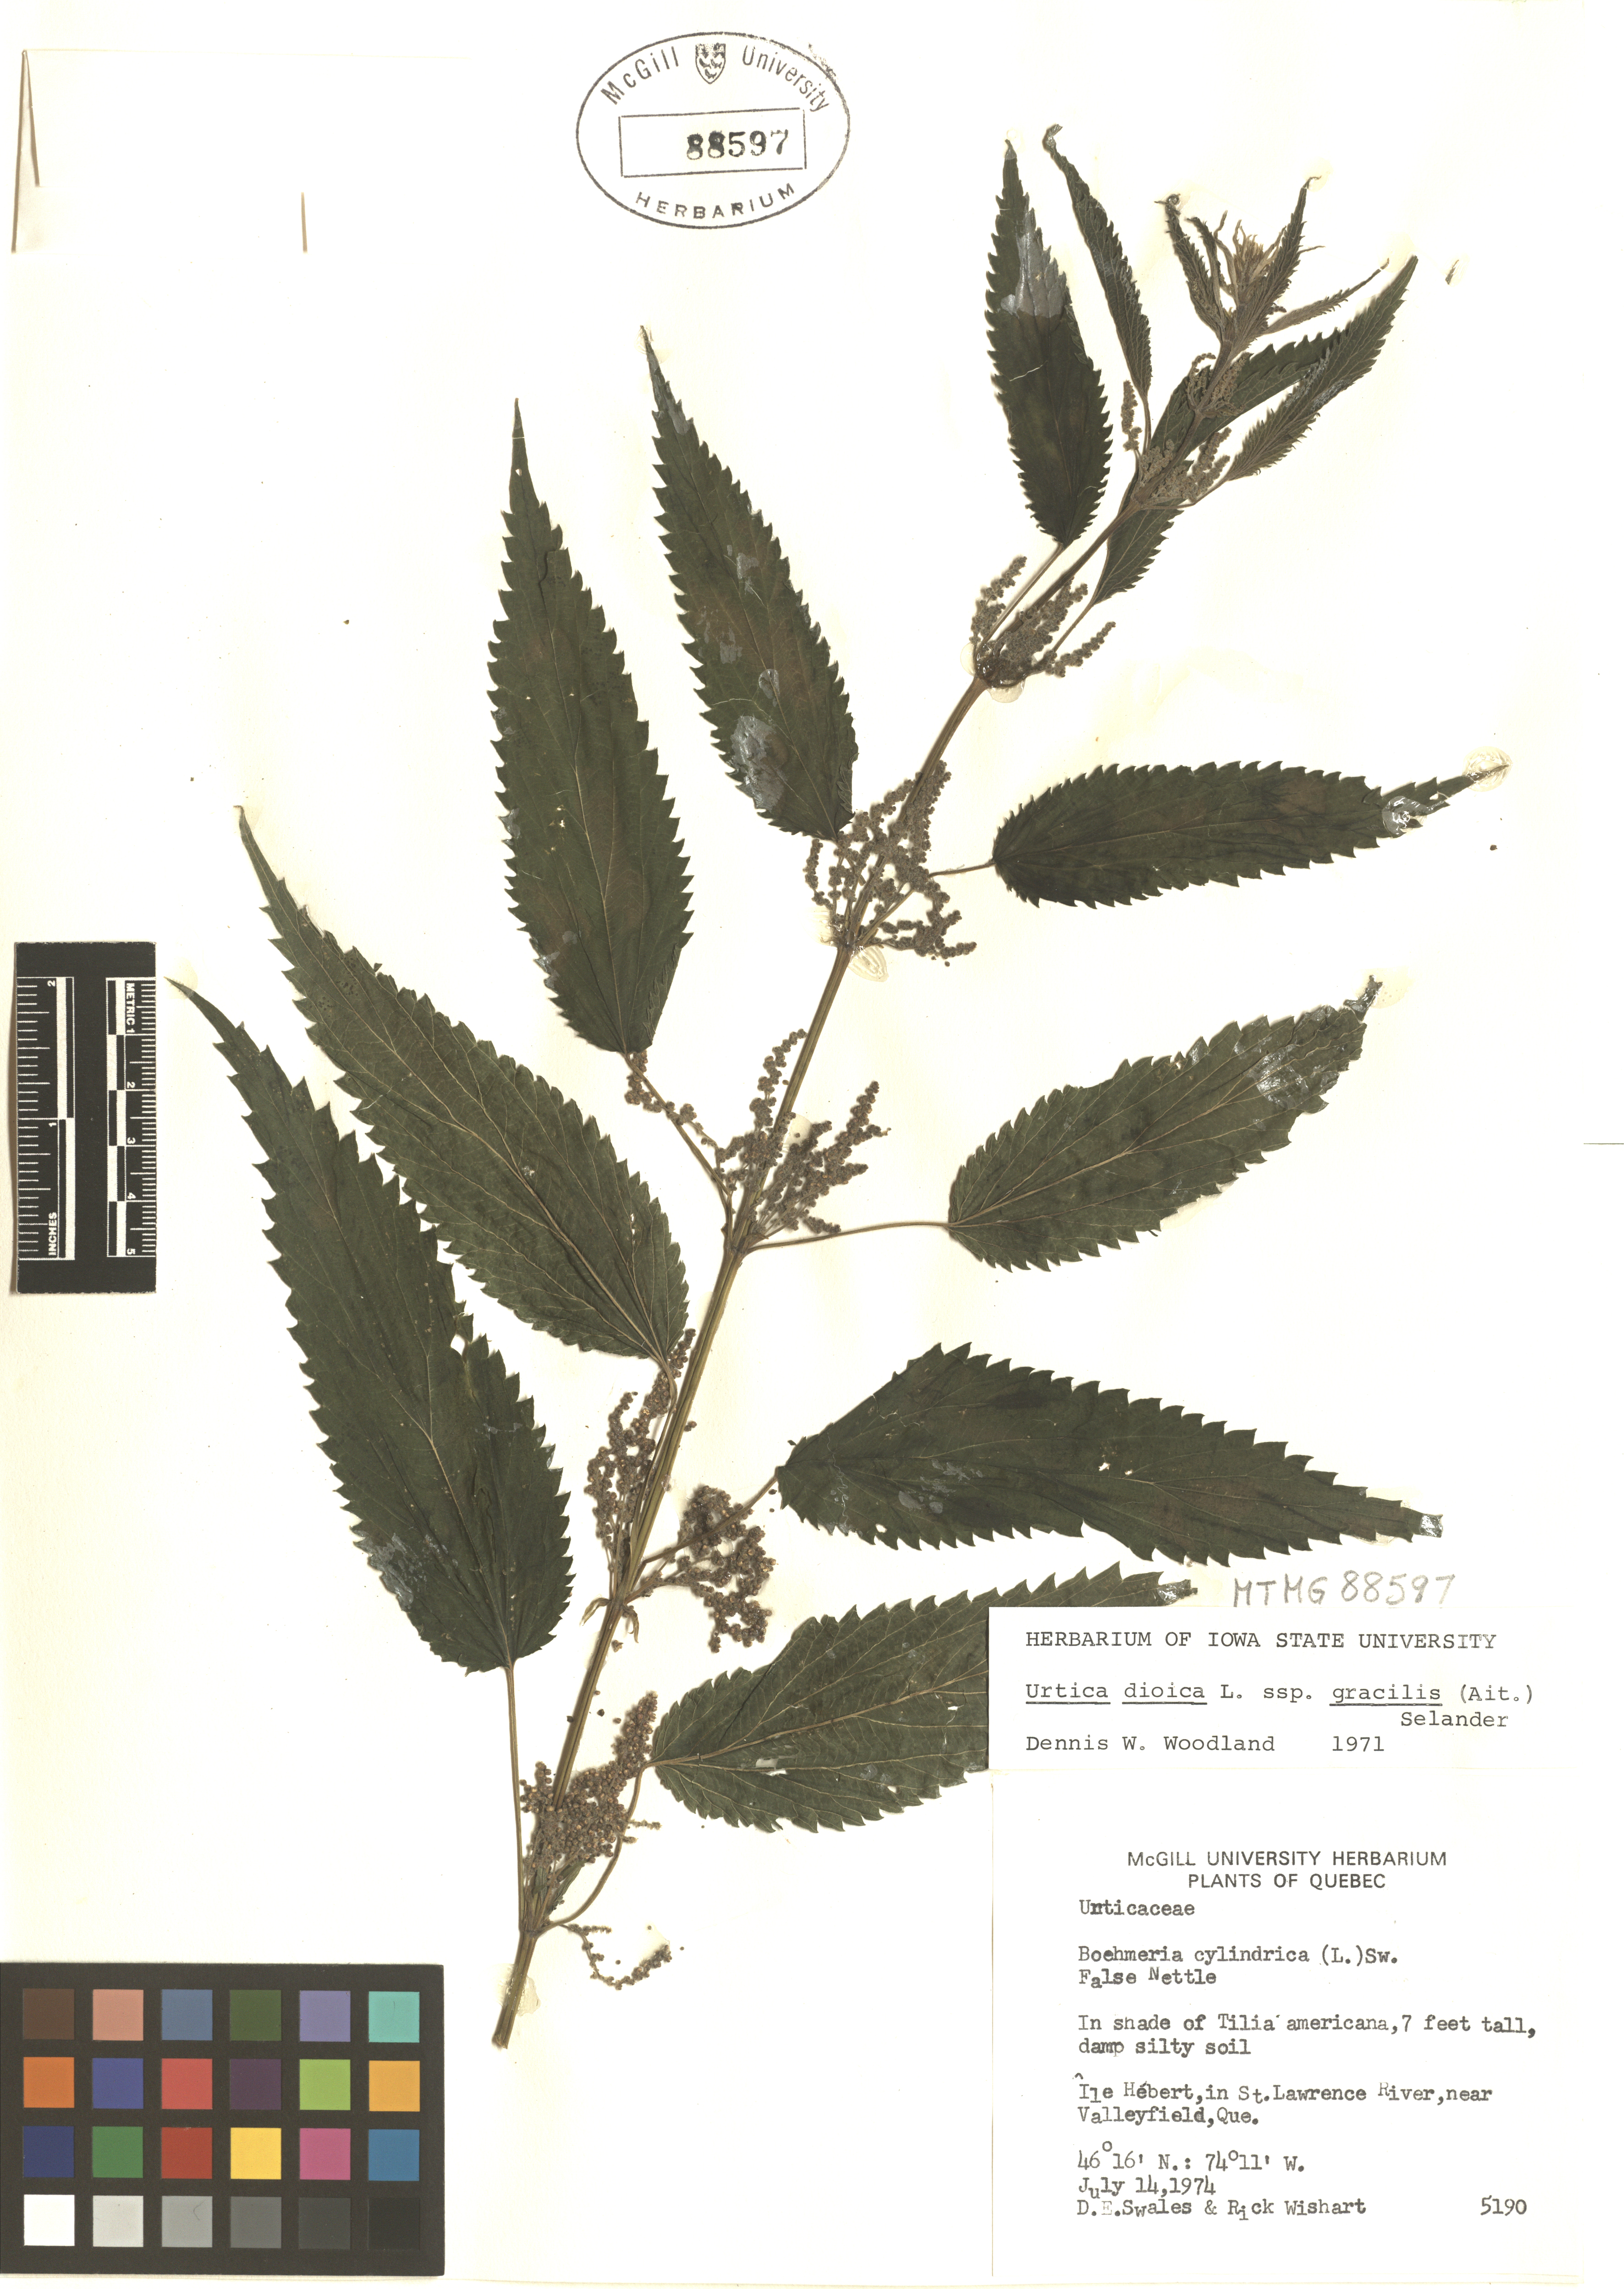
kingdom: Plantae
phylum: Tracheophyta
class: Magnoliopsida
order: Rosales
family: Urticaceae
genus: Urtica
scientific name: Urtica gracilis
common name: Slender stinging nettle
